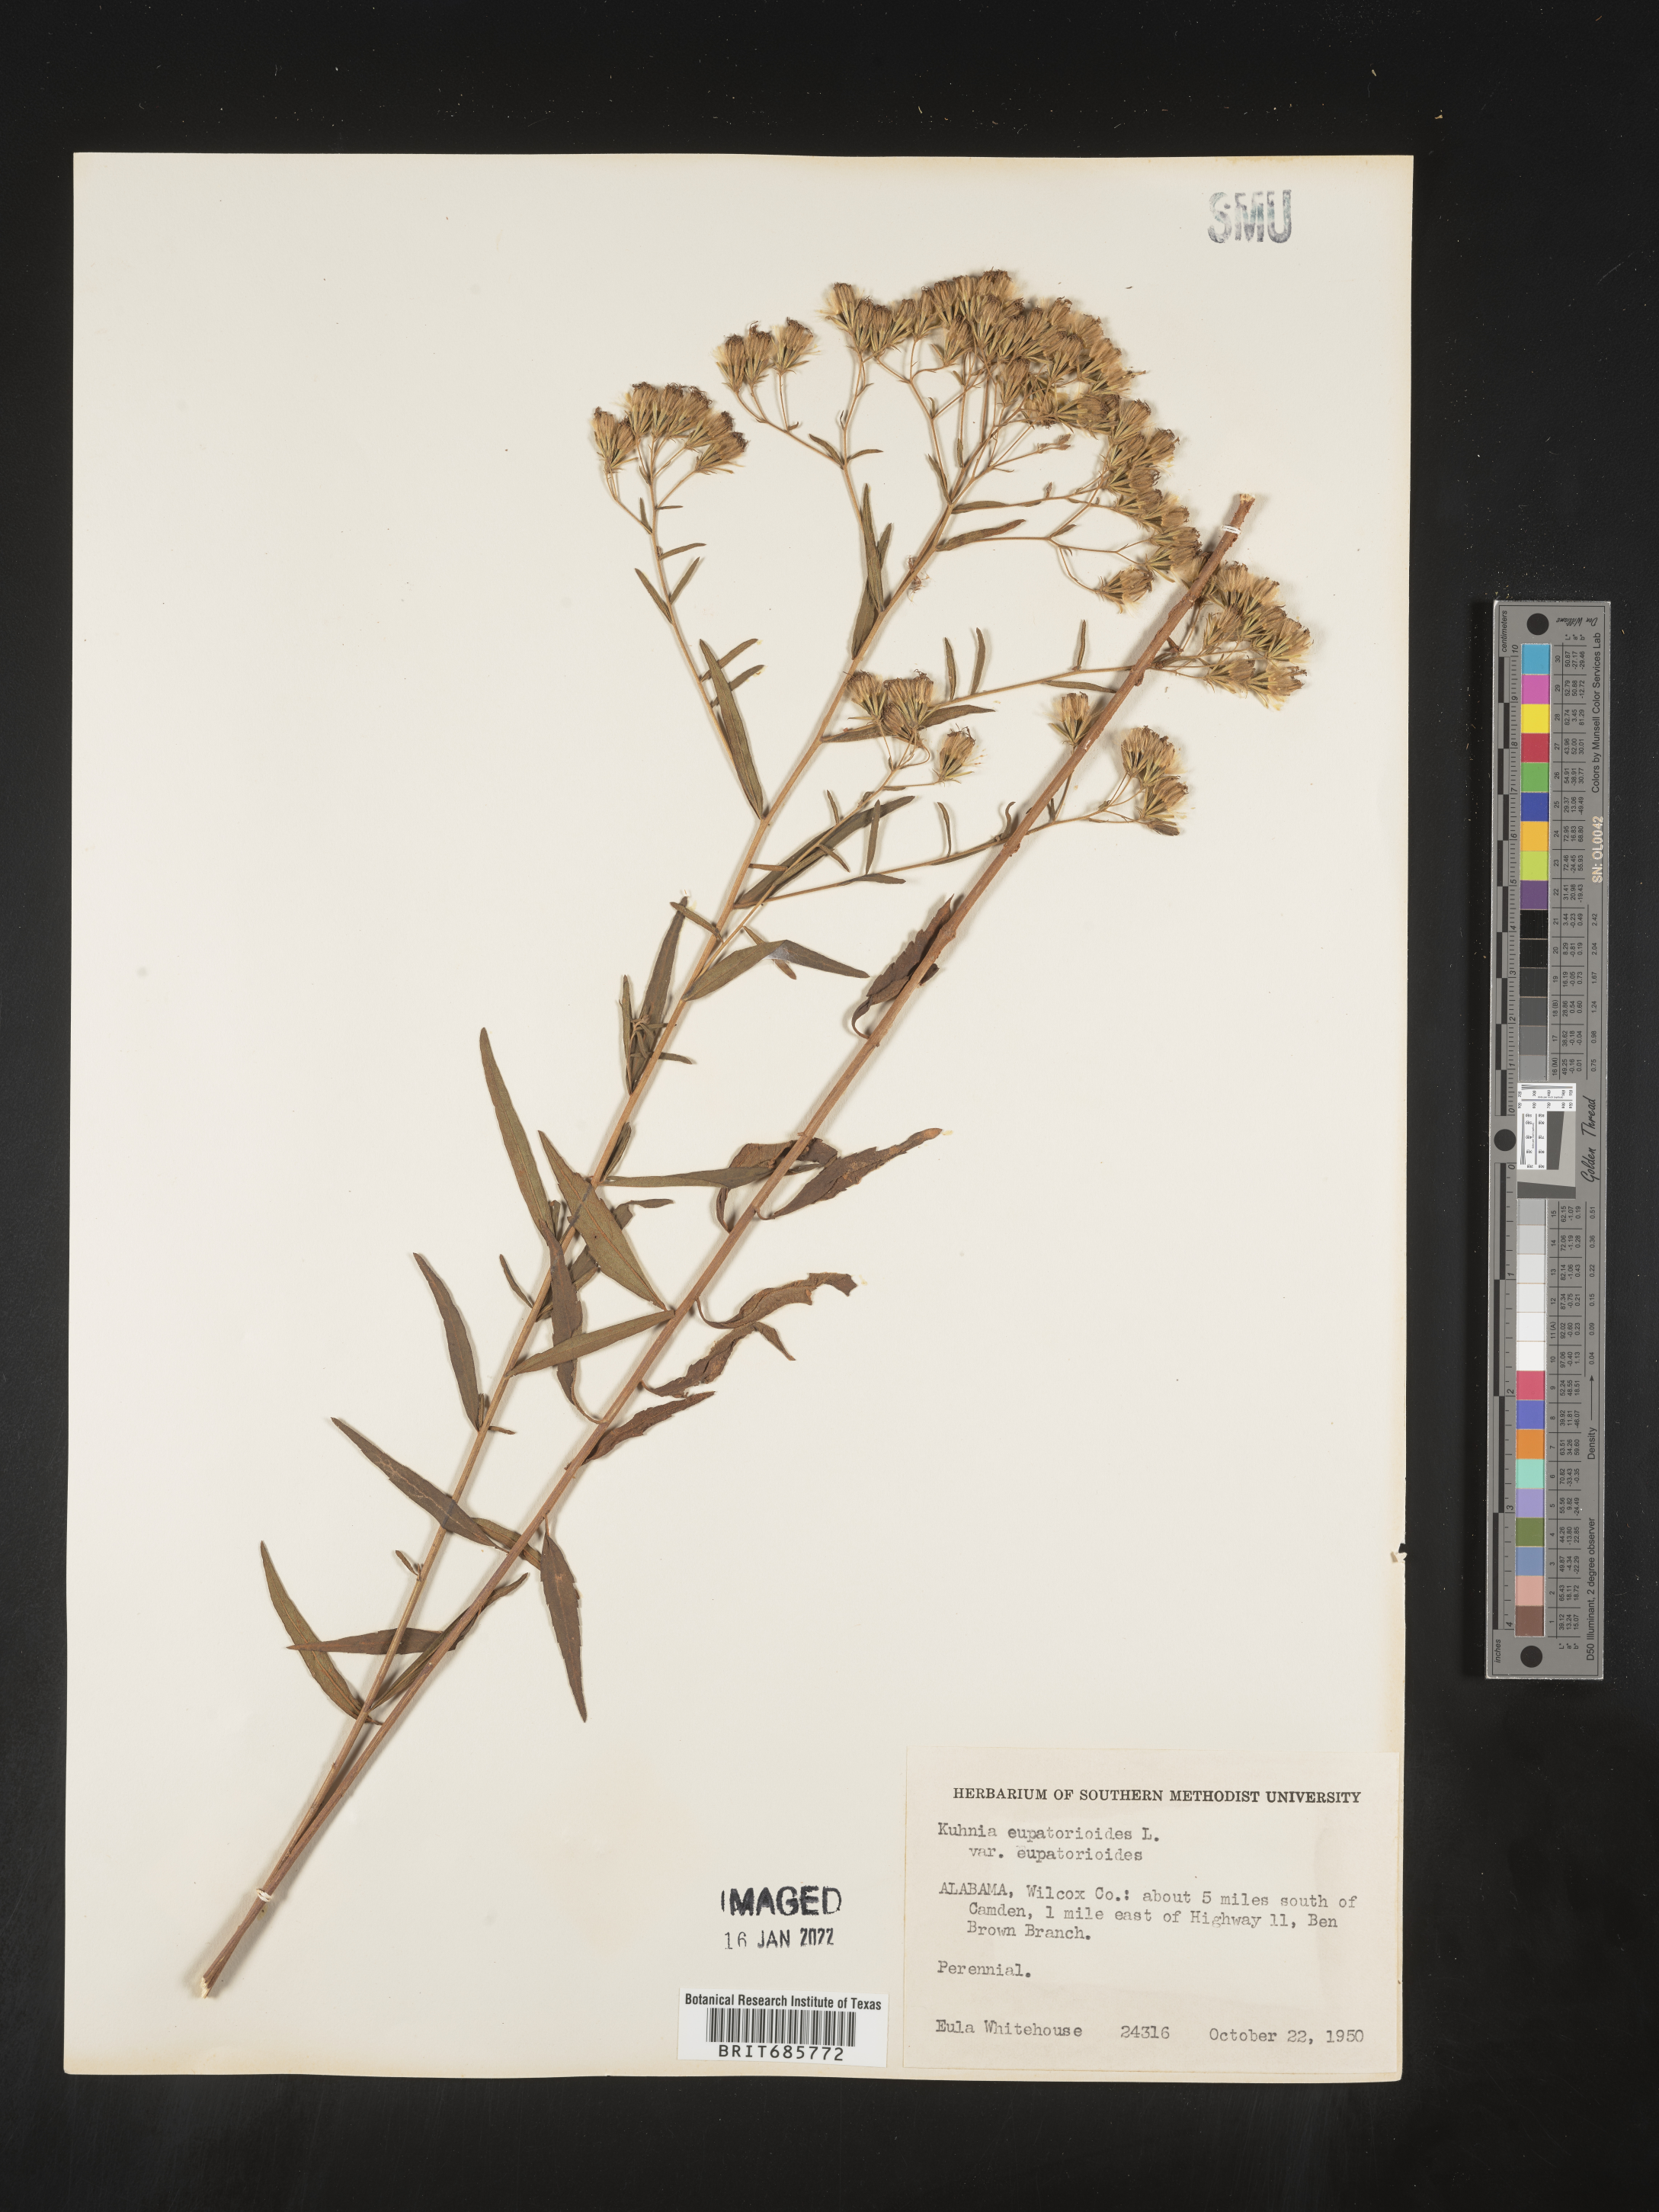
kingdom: Plantae
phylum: Tracheophyta
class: Magnoliopsida
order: Asterales
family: Asteraceae
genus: Brickellia
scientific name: Brickellia eupatorioides
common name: False boneset
